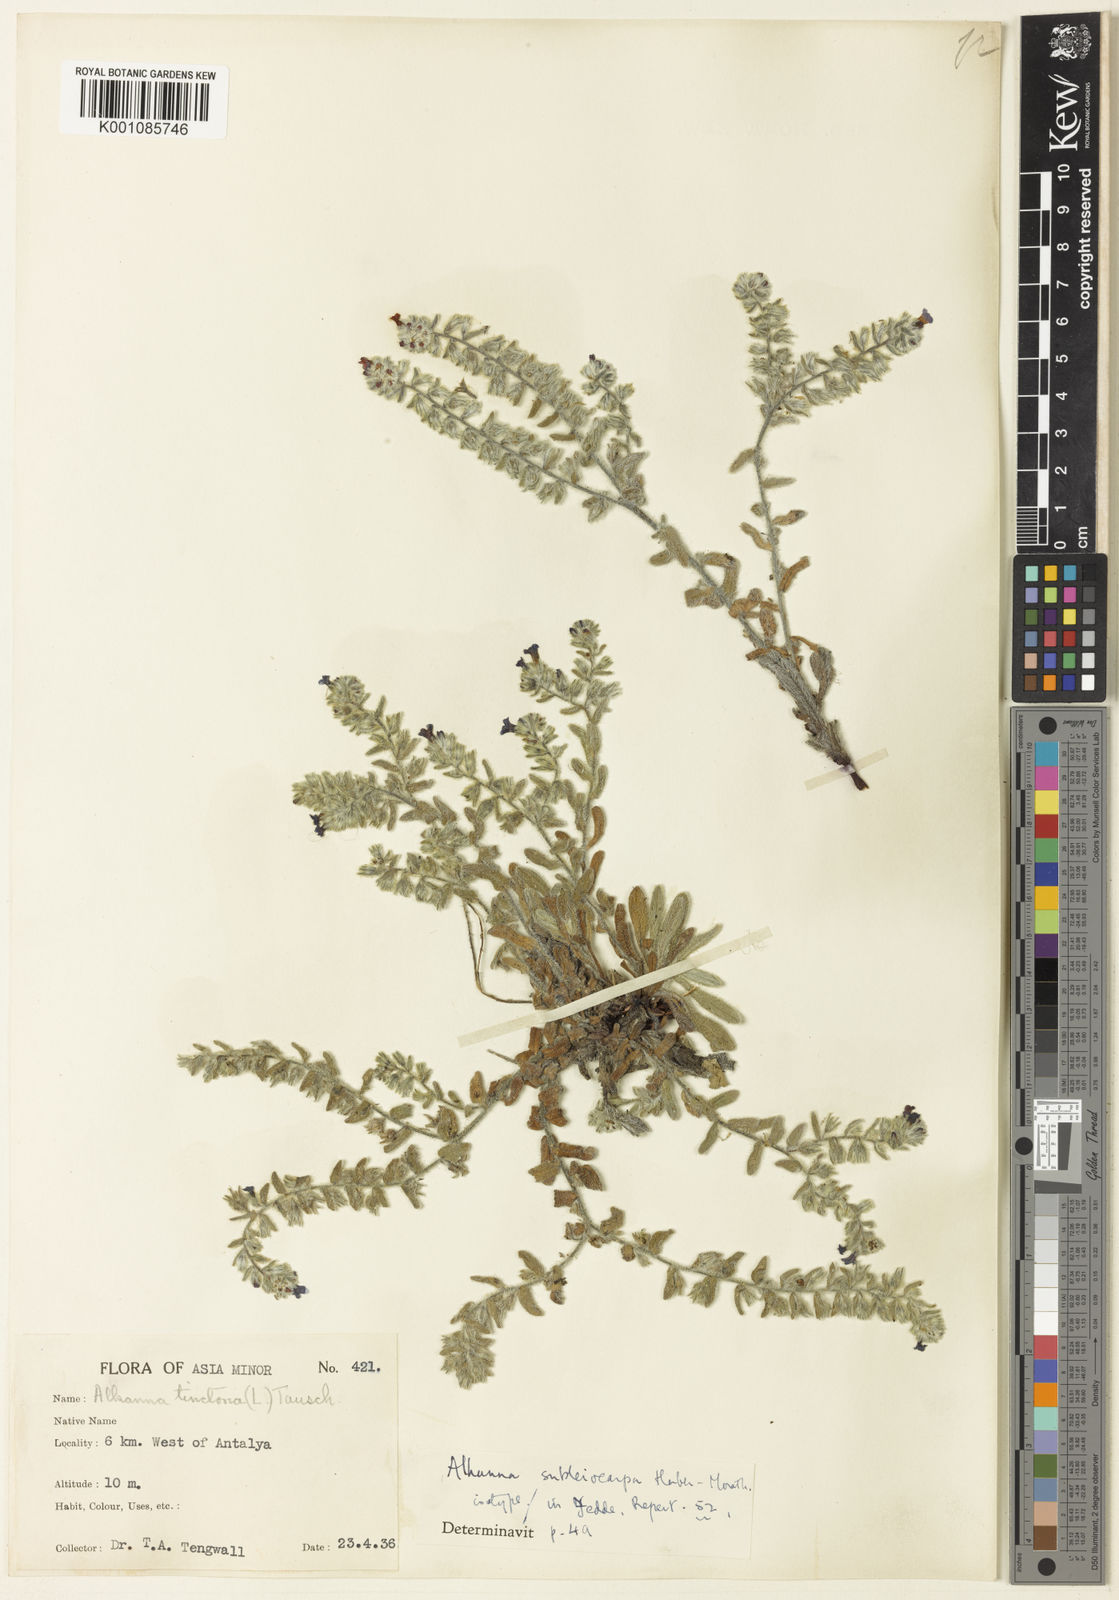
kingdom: Plantae
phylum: Tracheophyta
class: Magnoliopsida
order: Boraginales
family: Boraginaceae
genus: Alkanna
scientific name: Alkanna tinctoria
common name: Dyer's-alkanet
